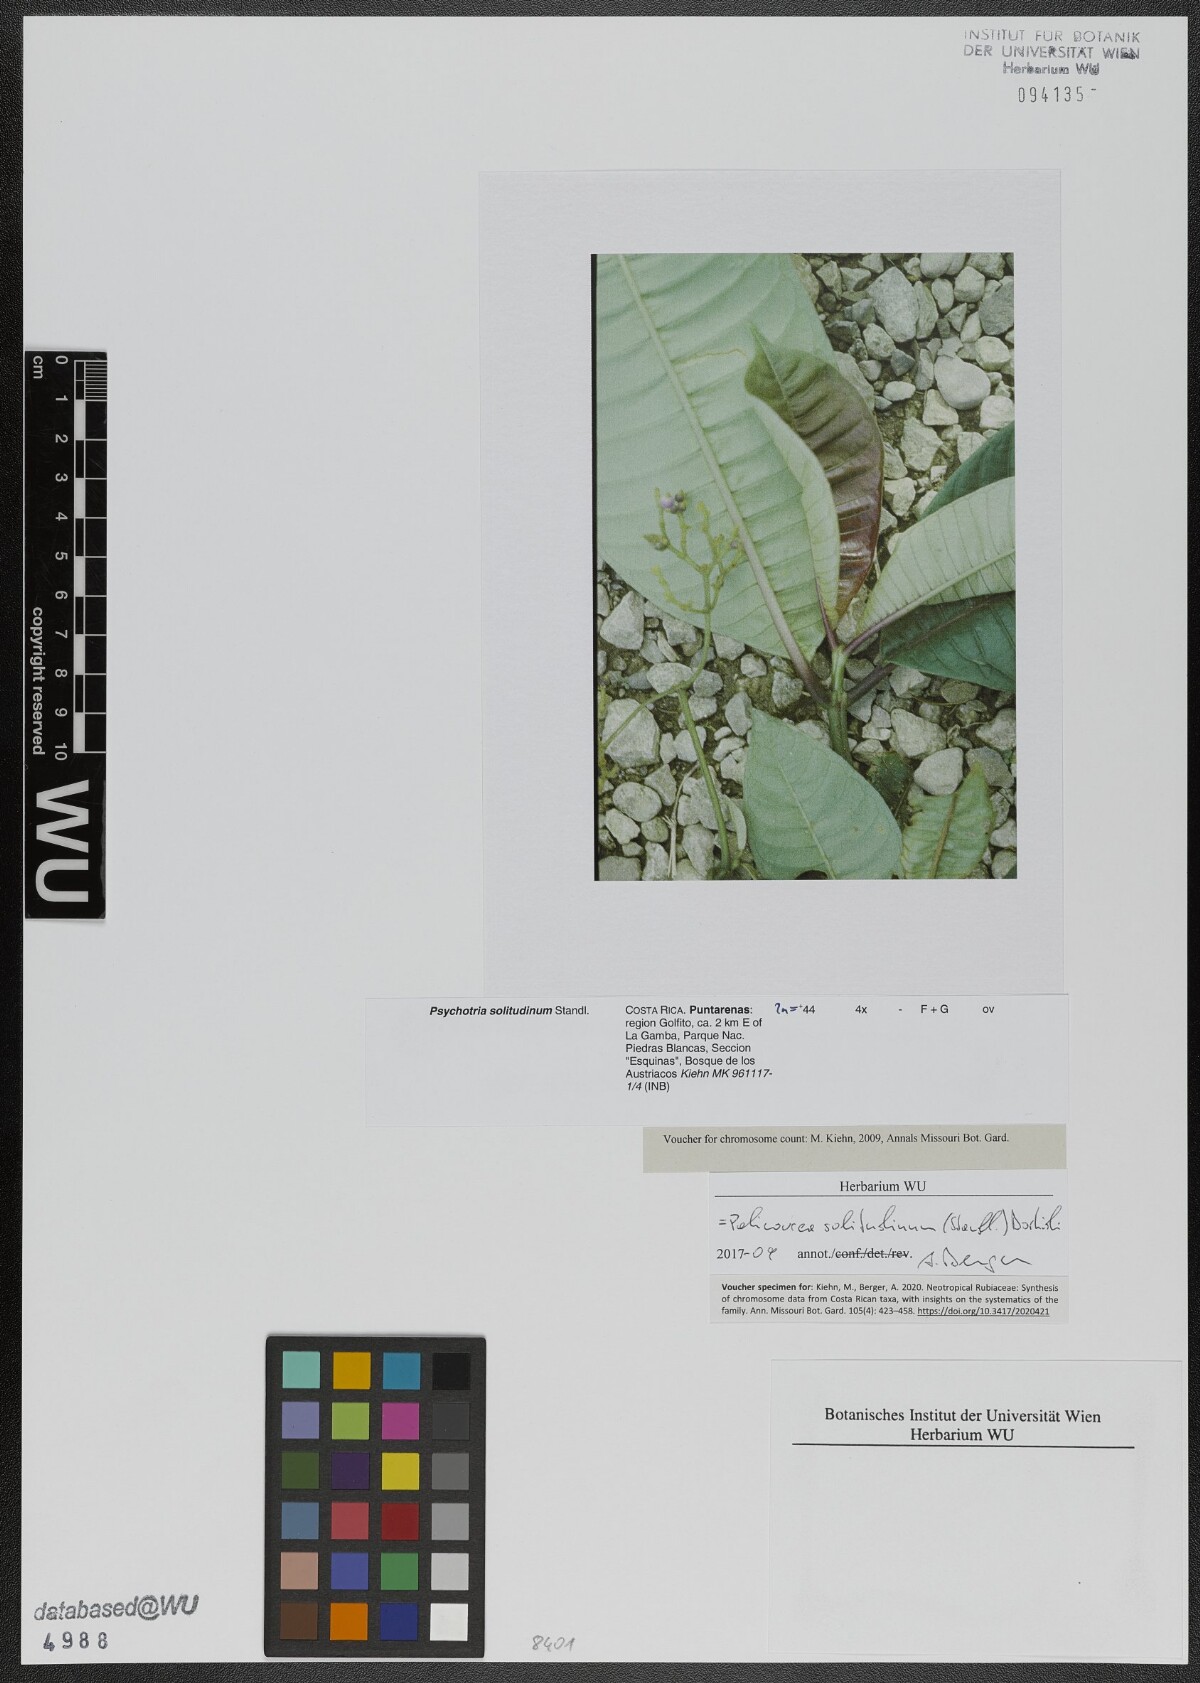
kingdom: Plantae
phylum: Tracheophyta
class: Magnoliopsida
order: Gentianales
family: Rubiaceae
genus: Palicourea
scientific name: Palicourea solitudinum
